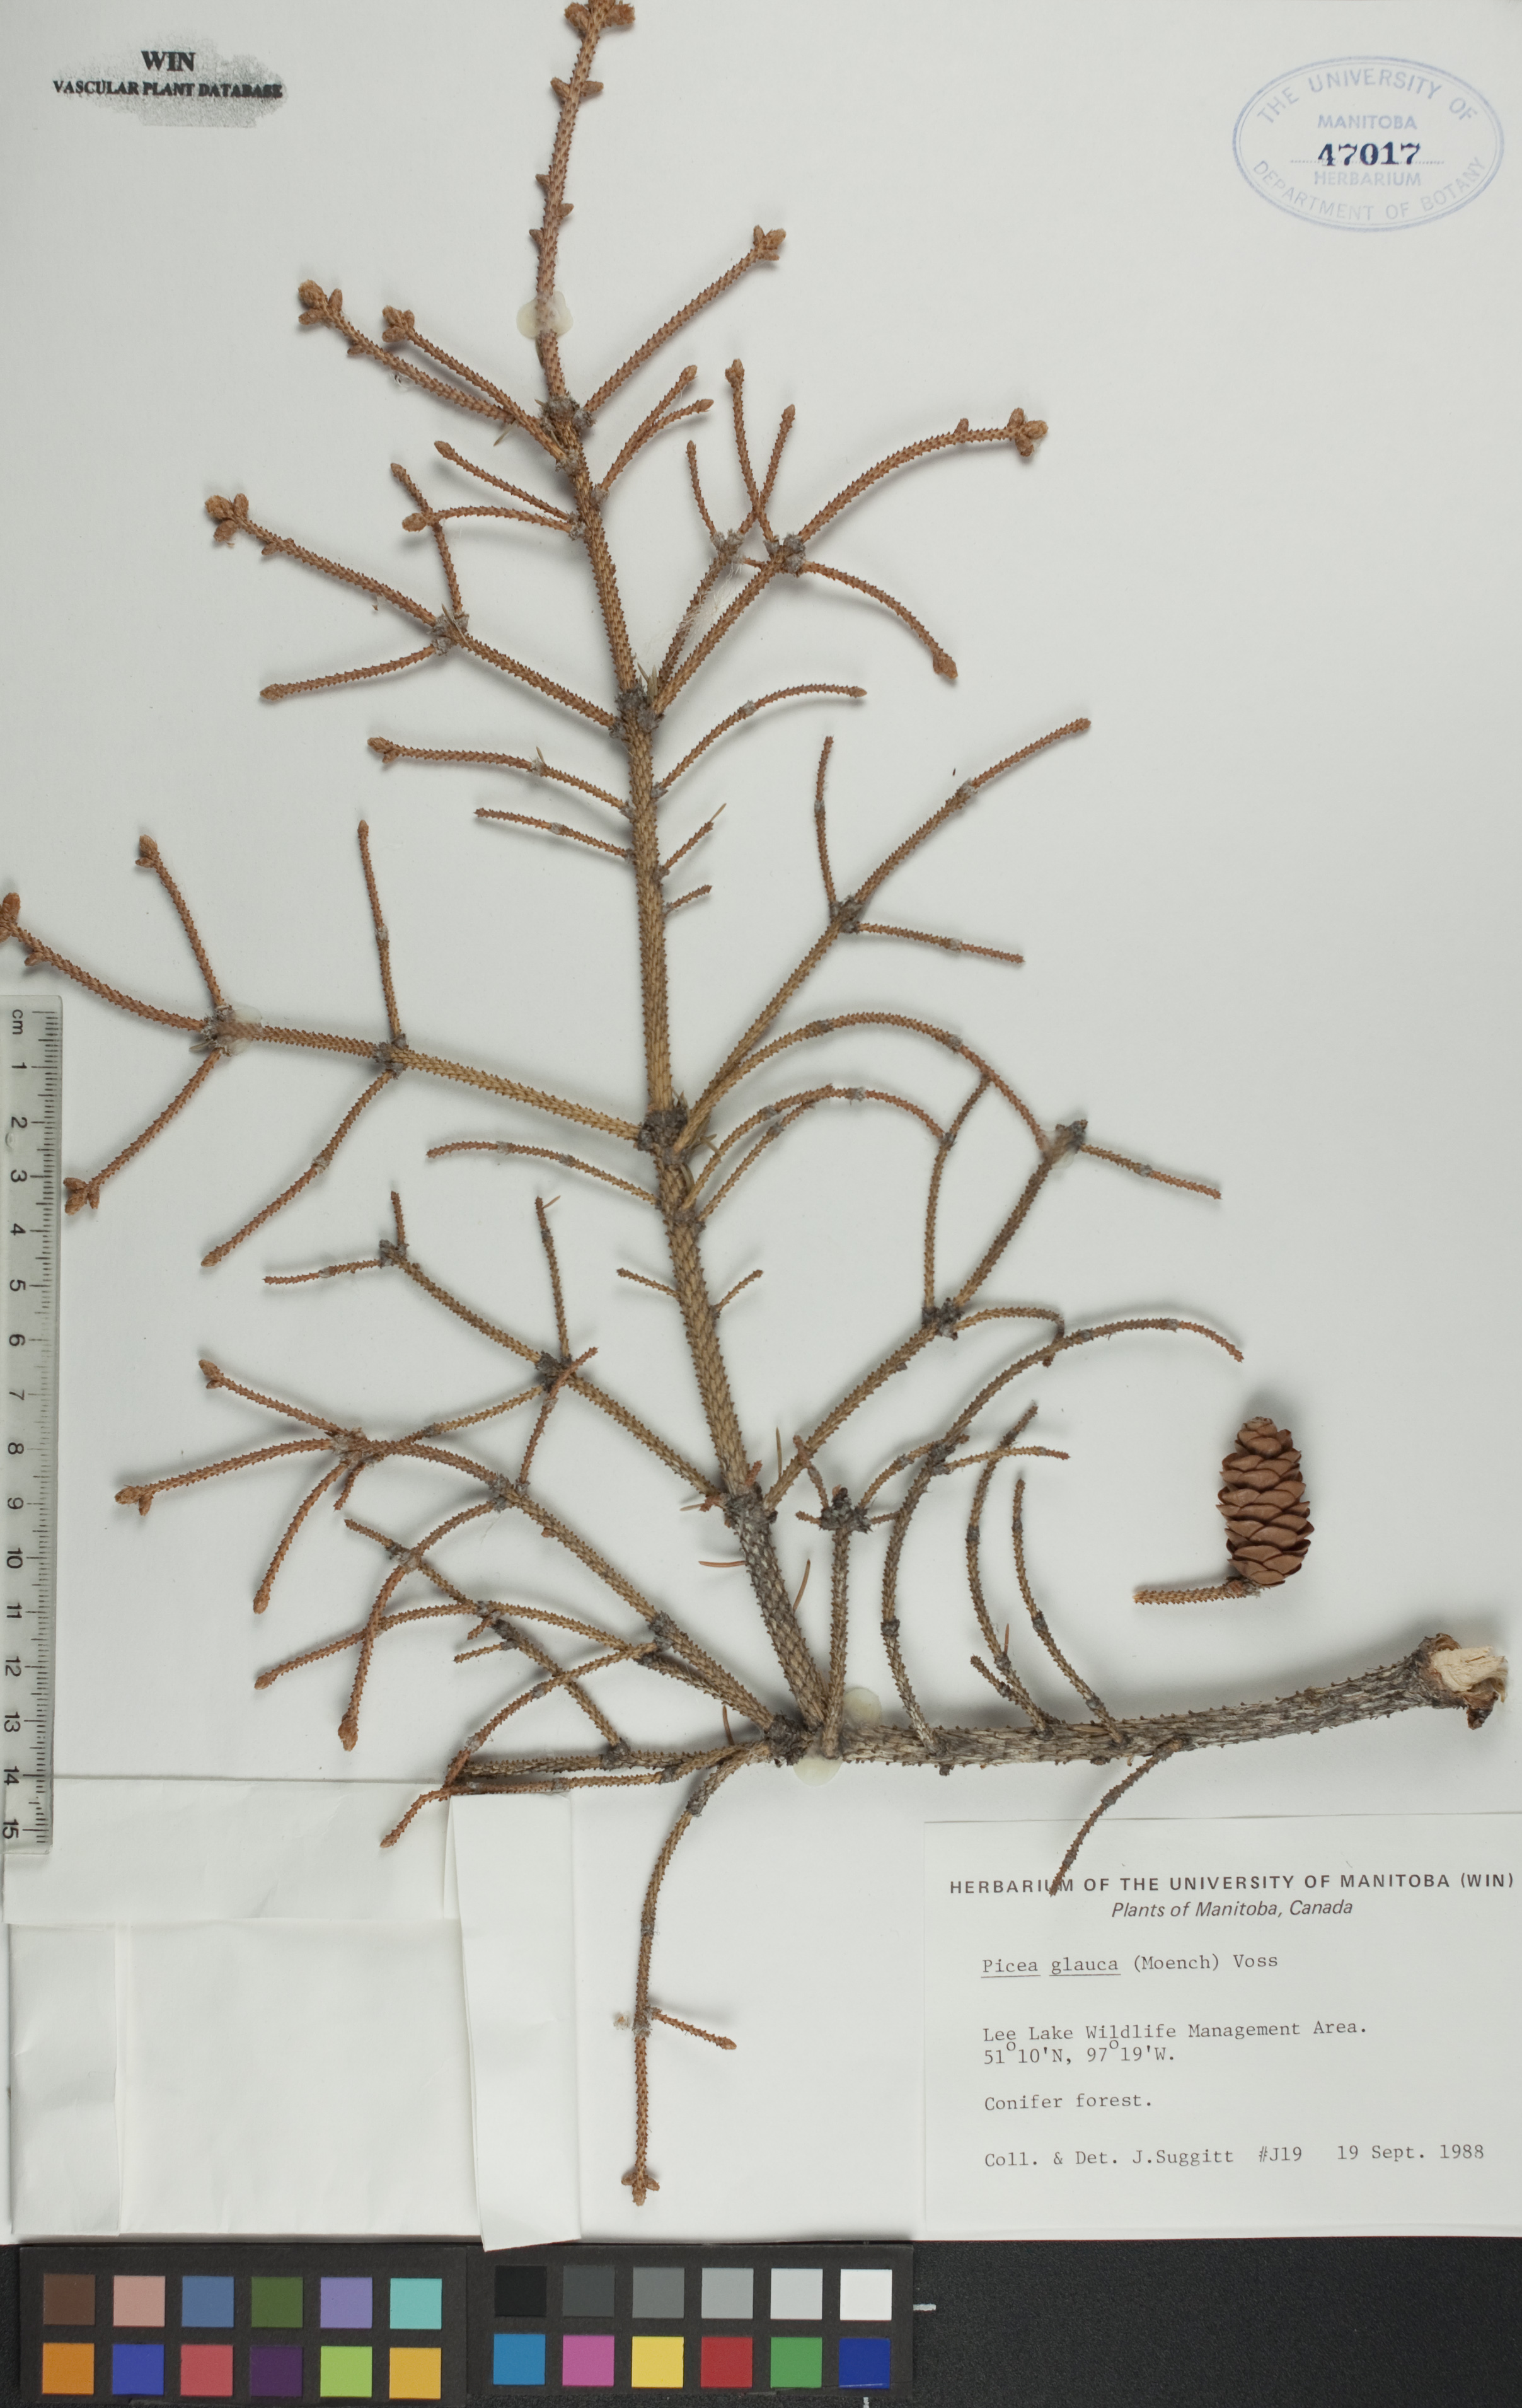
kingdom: Plantae
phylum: Tracheophyta
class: Pinopsida
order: Pinales
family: Pinaceae
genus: Picea
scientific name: Picea glauca
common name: White spruce
